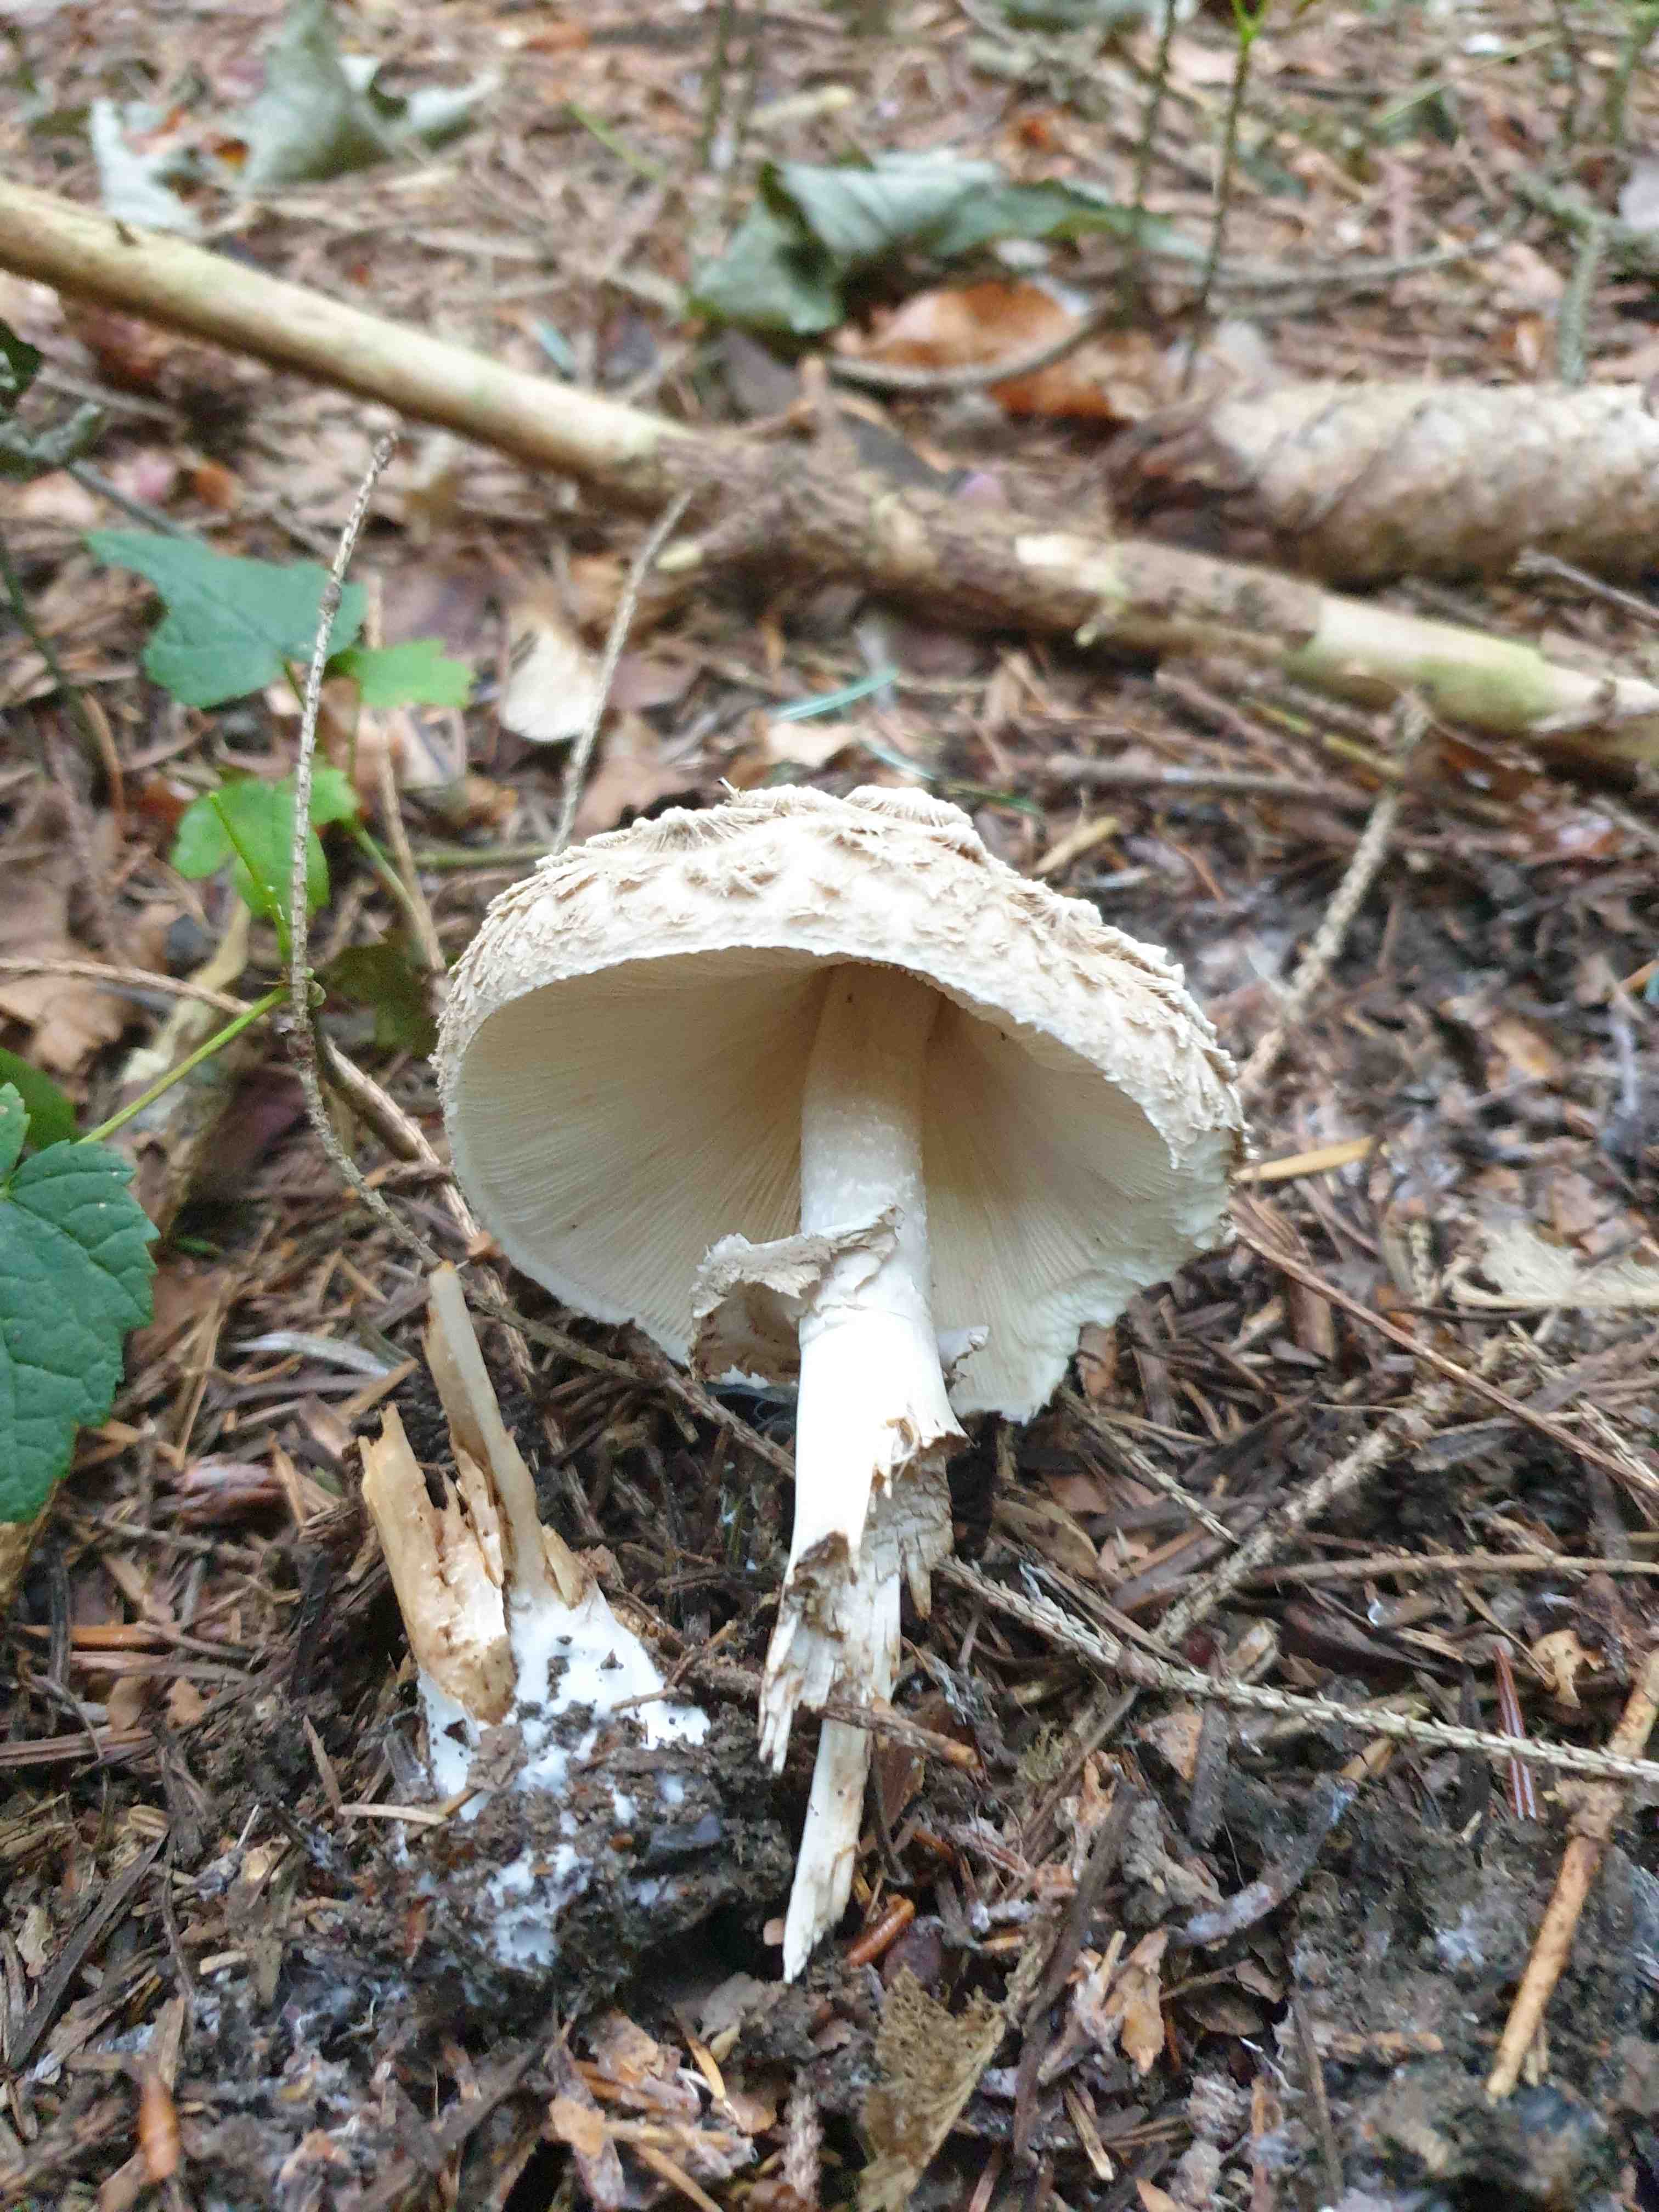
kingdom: Fungi
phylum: Basidiomycota
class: Agaricomycetes
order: Agaricales
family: Agaricaceae
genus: Chlorophyllum
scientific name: Chlorophyllum olivieri
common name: almindelig rabarberhat
